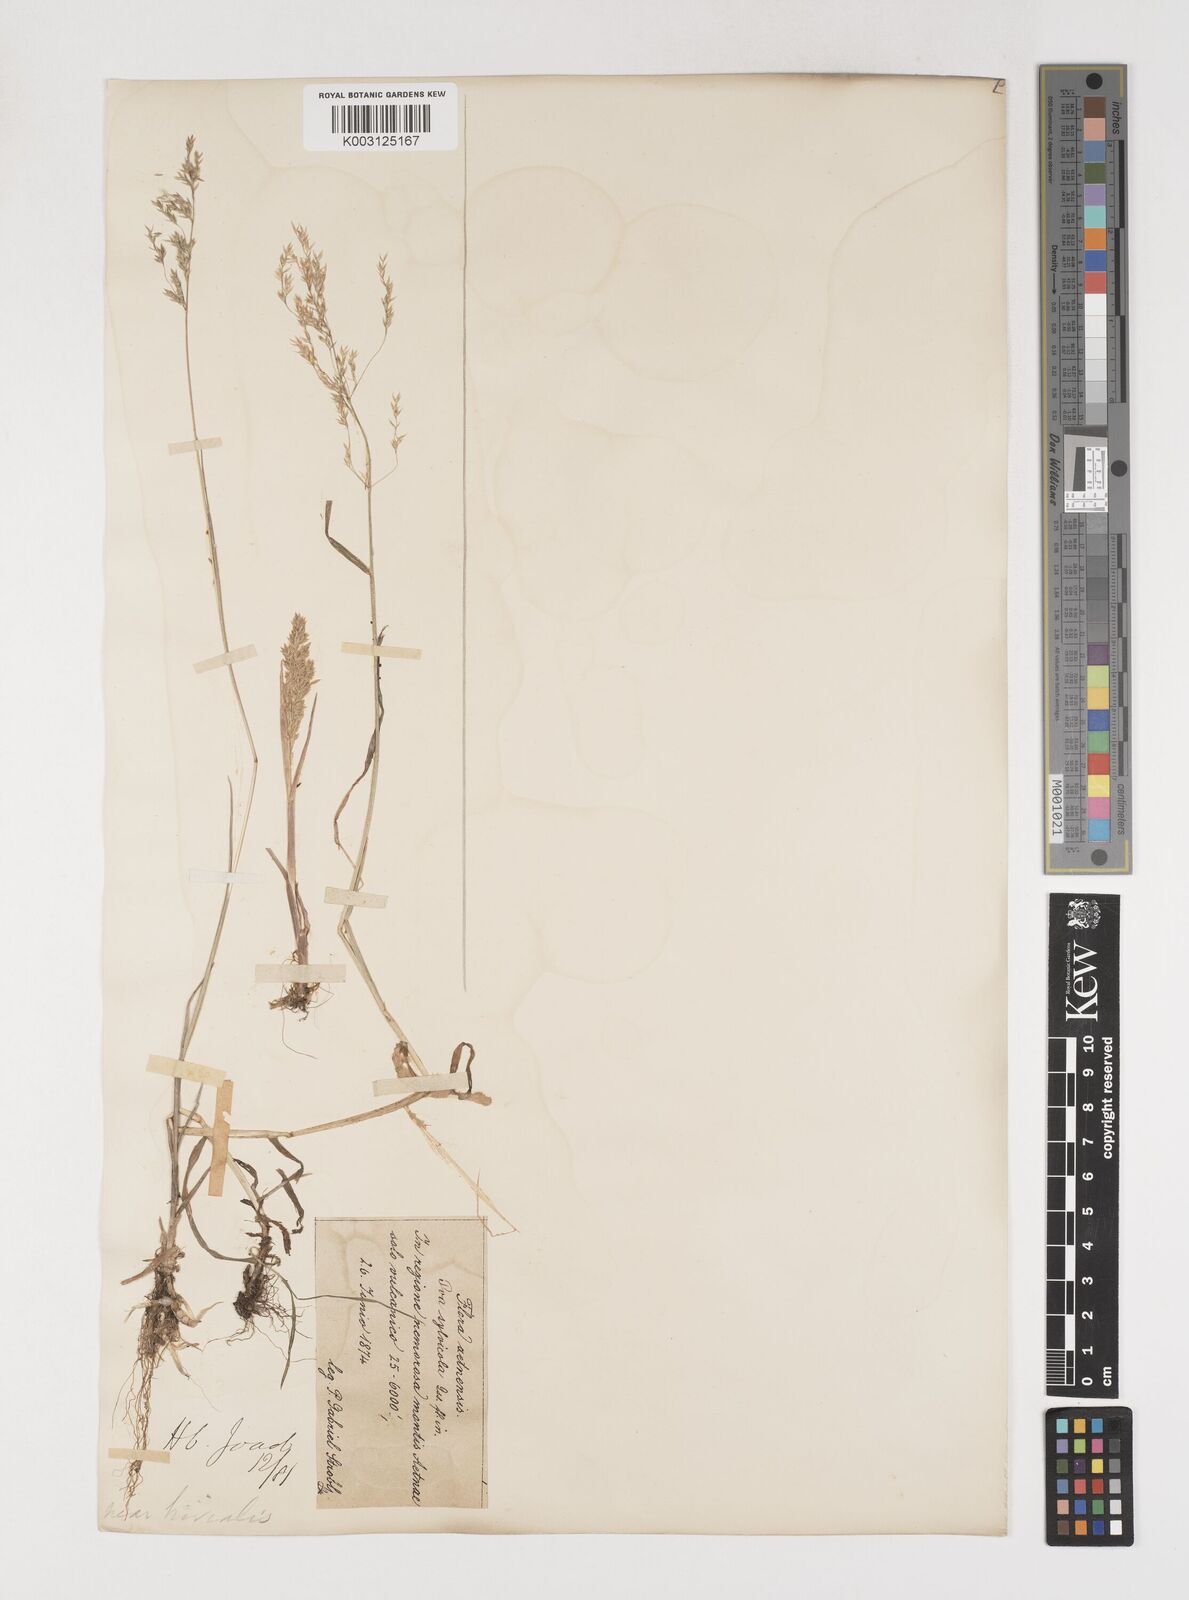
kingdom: Plantae
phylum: Tracheophyta
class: Liliopsida
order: Poales
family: Poaceae
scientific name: Poaceae
